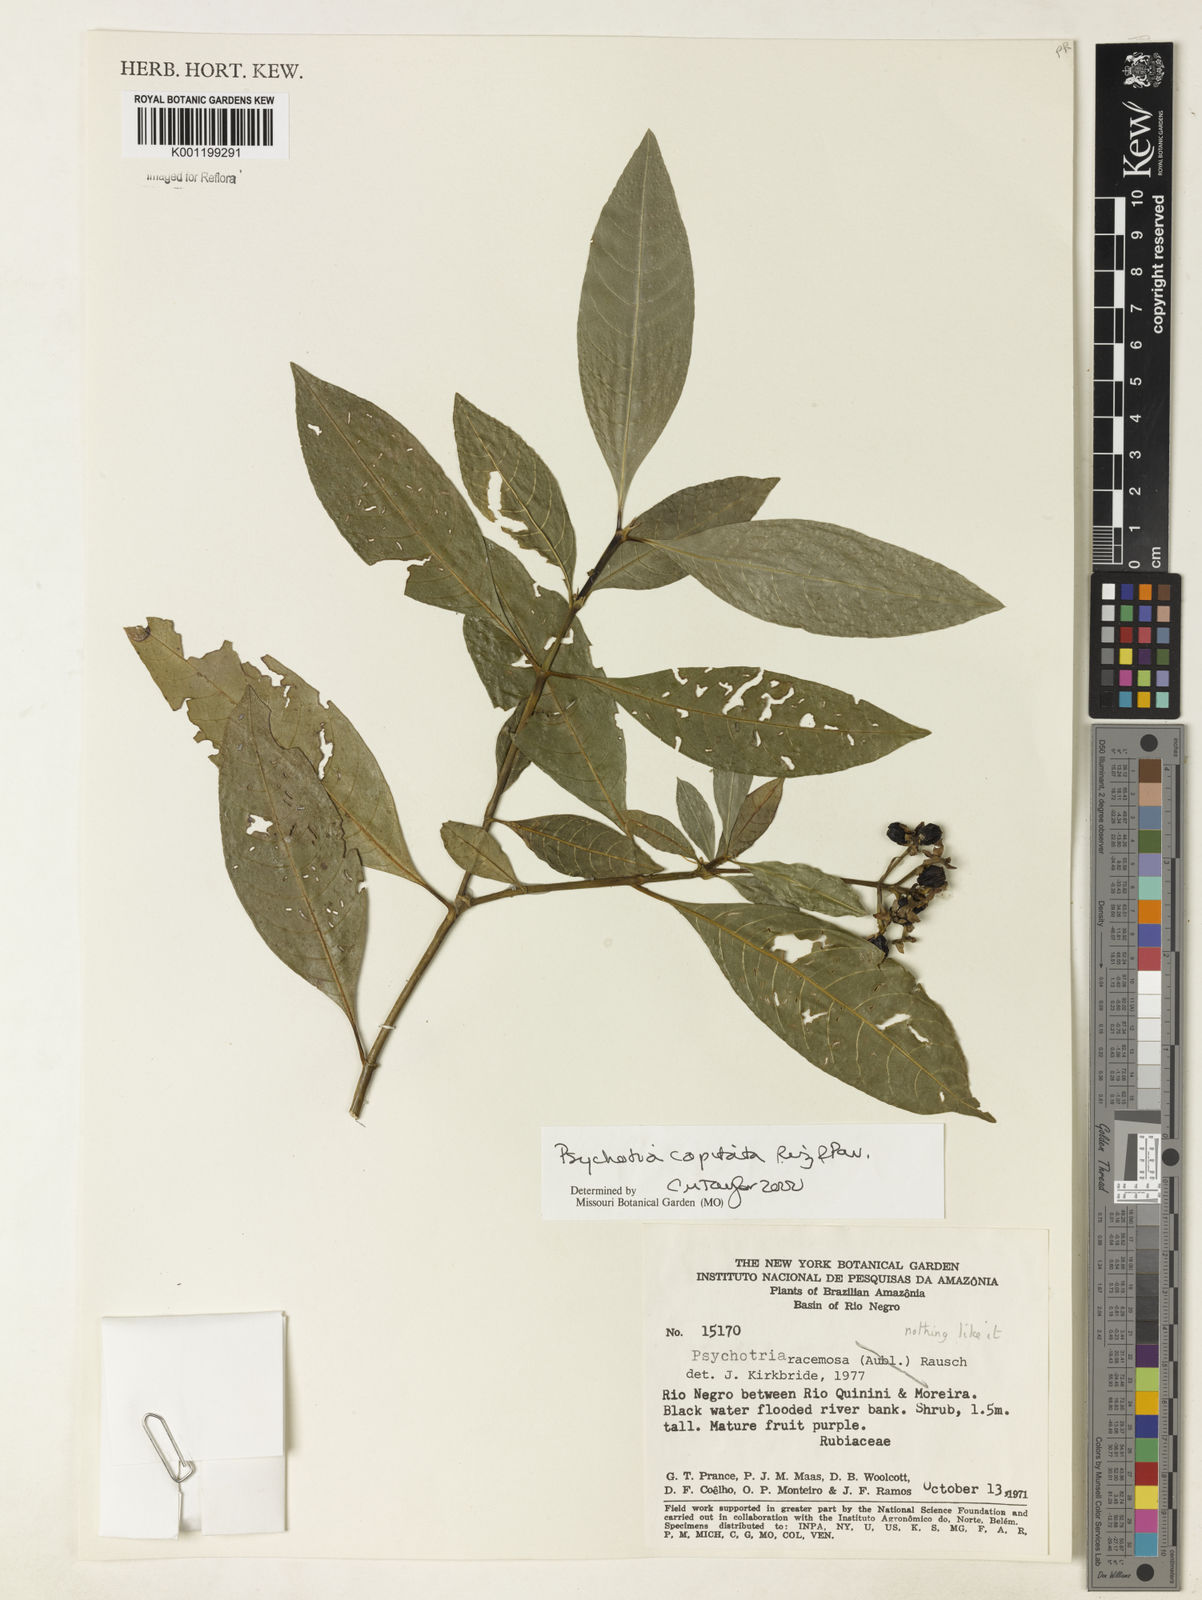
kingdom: Plantae
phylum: Tracheophyta
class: Magnoliopsida
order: Gentianales
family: Rubiaceae
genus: Palicourea
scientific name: Palicourea violacea
